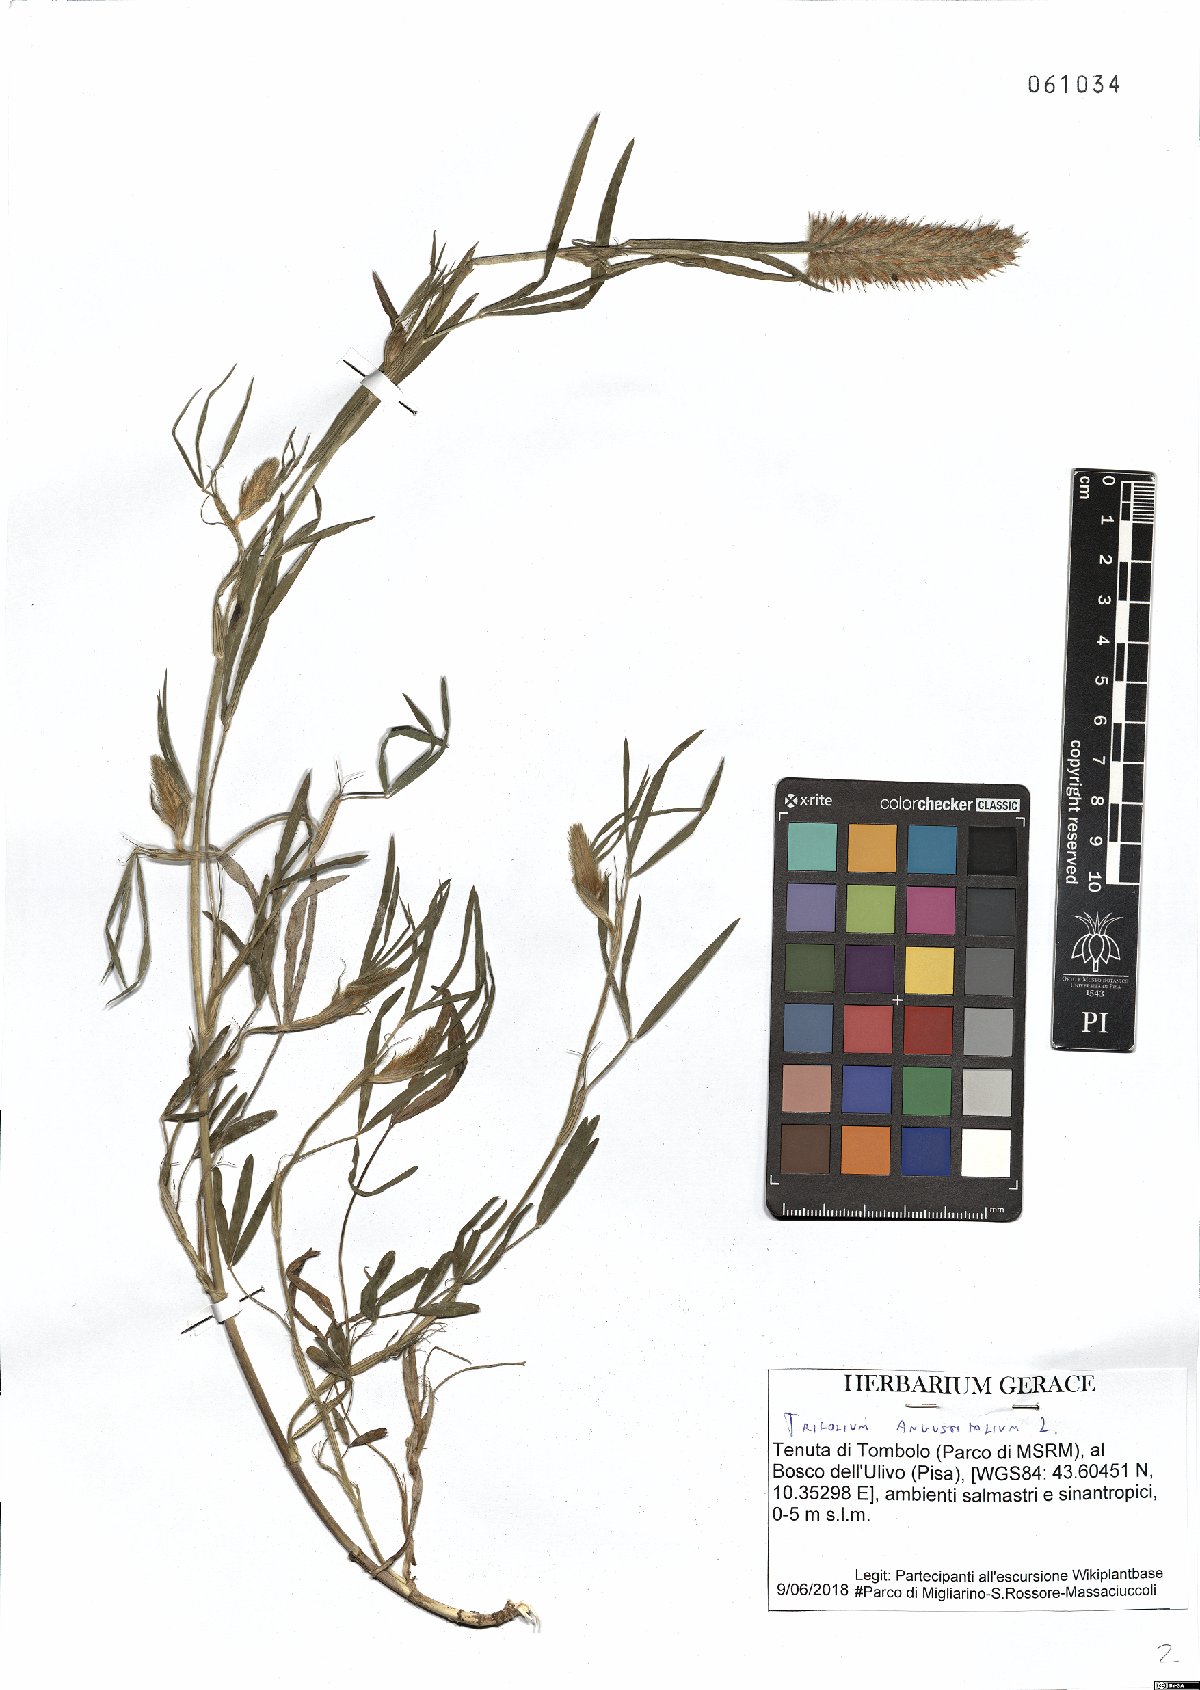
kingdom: Plantae
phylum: Tracheophyta
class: Magnoliopsida
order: Fabales
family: Fabaceae
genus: Trifolium
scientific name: Trifolium angustifolium
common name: Narrow clover
